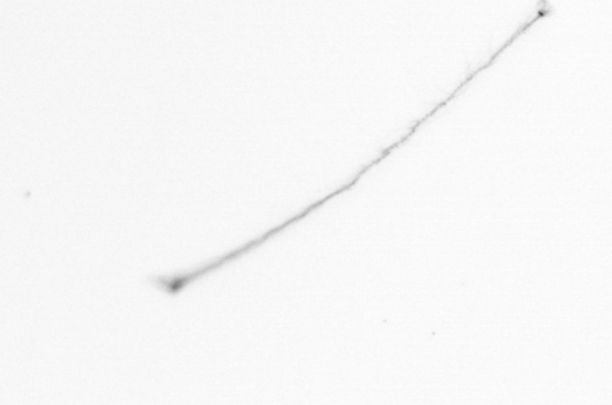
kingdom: Chromista
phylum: Ochrophyta
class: Bacillariophyceae
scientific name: Bacillariophyceae
